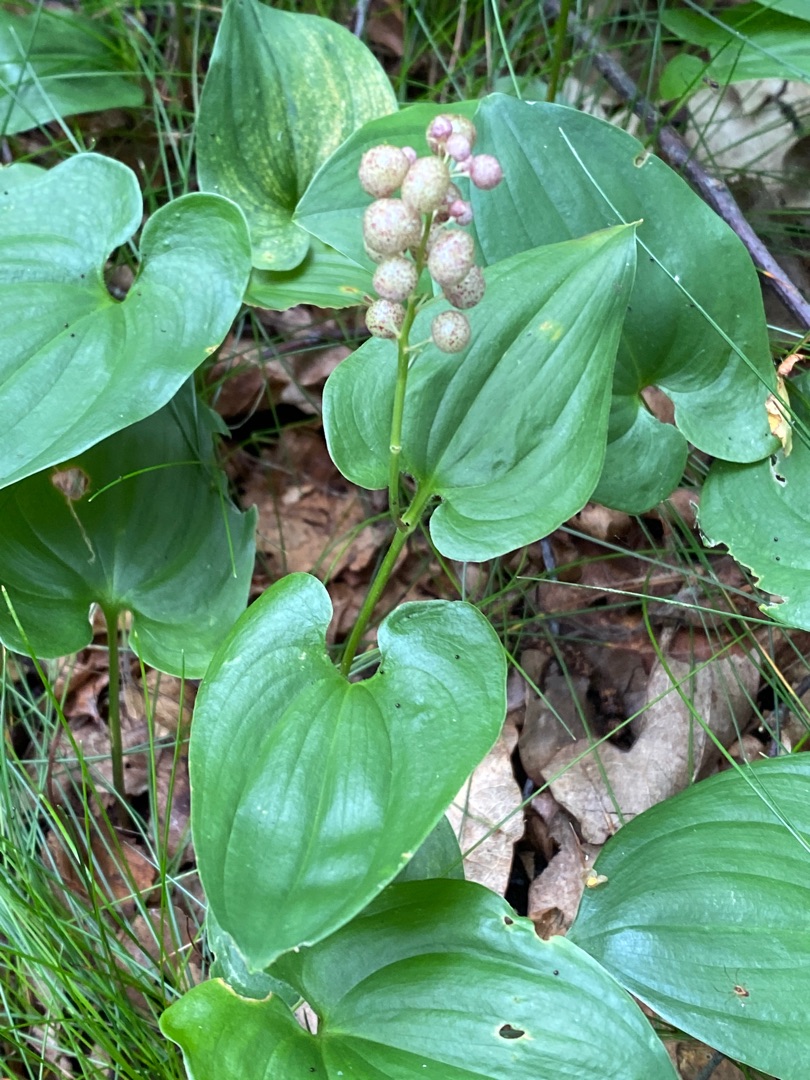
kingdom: Plantae
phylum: Tracheophyta
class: Liliopsida
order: Asparagales
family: Asparagaceae
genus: Maianthemum
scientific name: Maianthemum bifolium
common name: Majblomst
